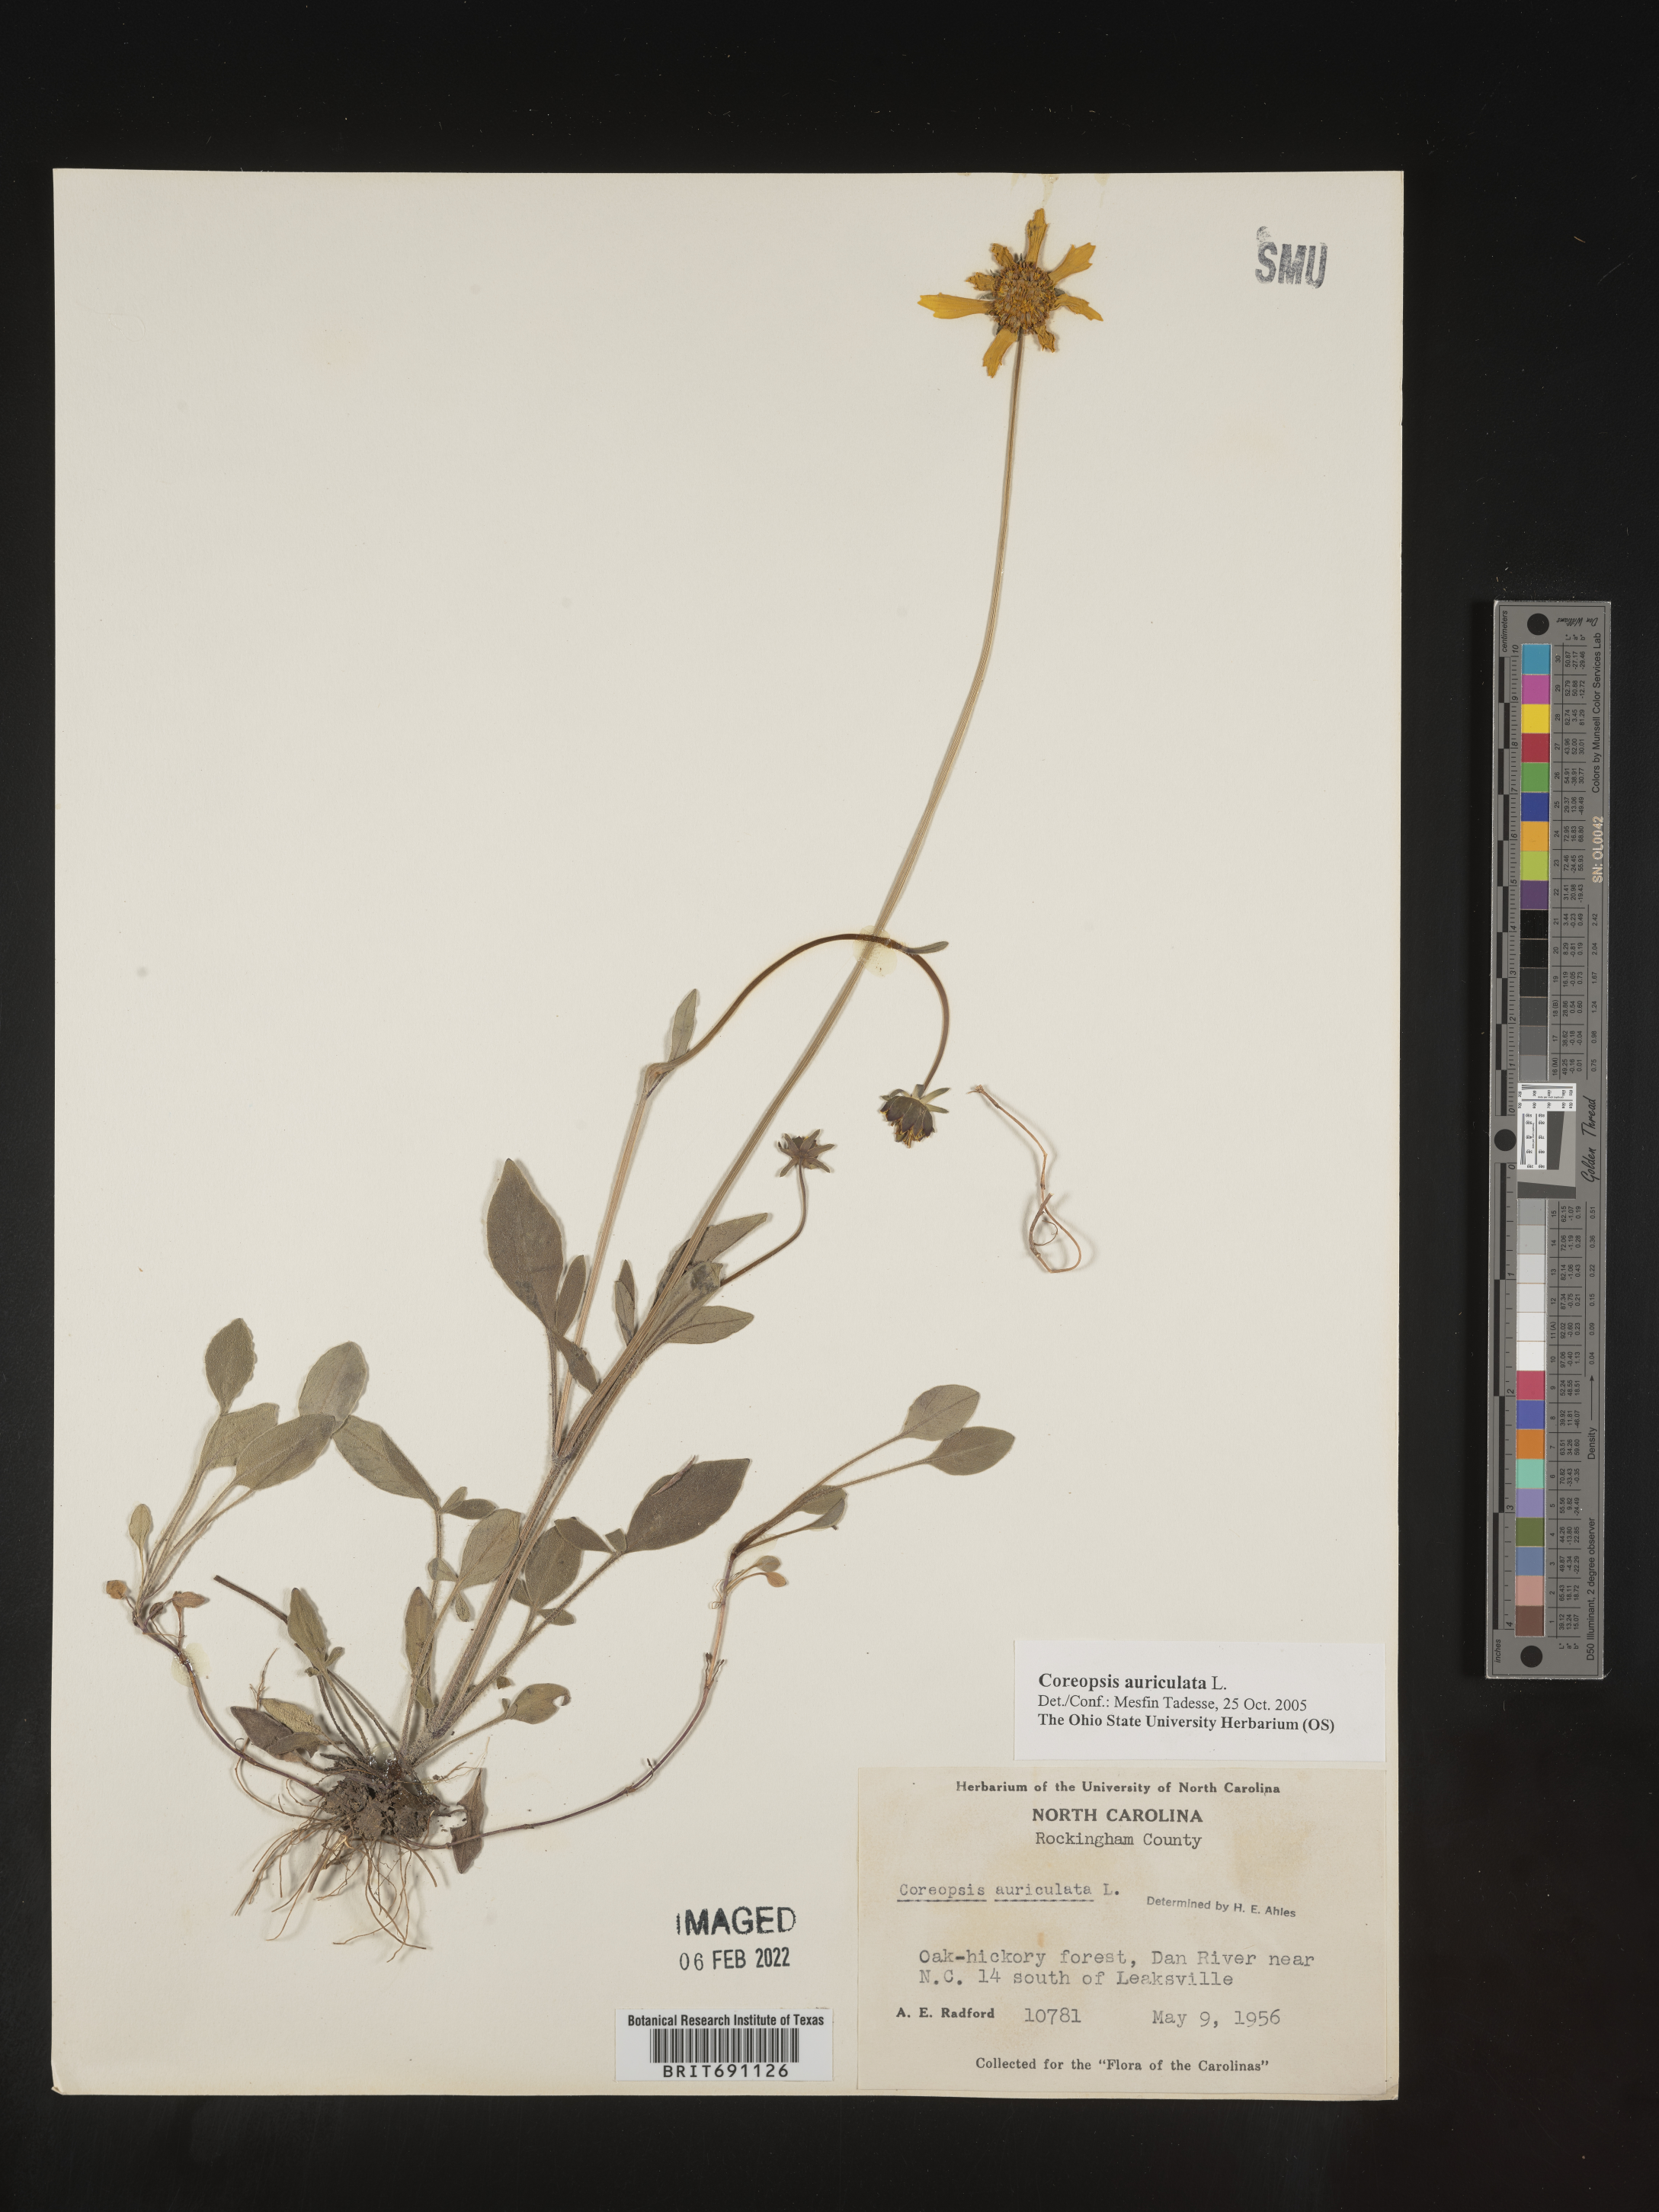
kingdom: Plantae
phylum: Tracheophyta
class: Magnoliopsida
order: Asterales
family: Asteraceae
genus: Coreopsis
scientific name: Coreopsis auriculata
